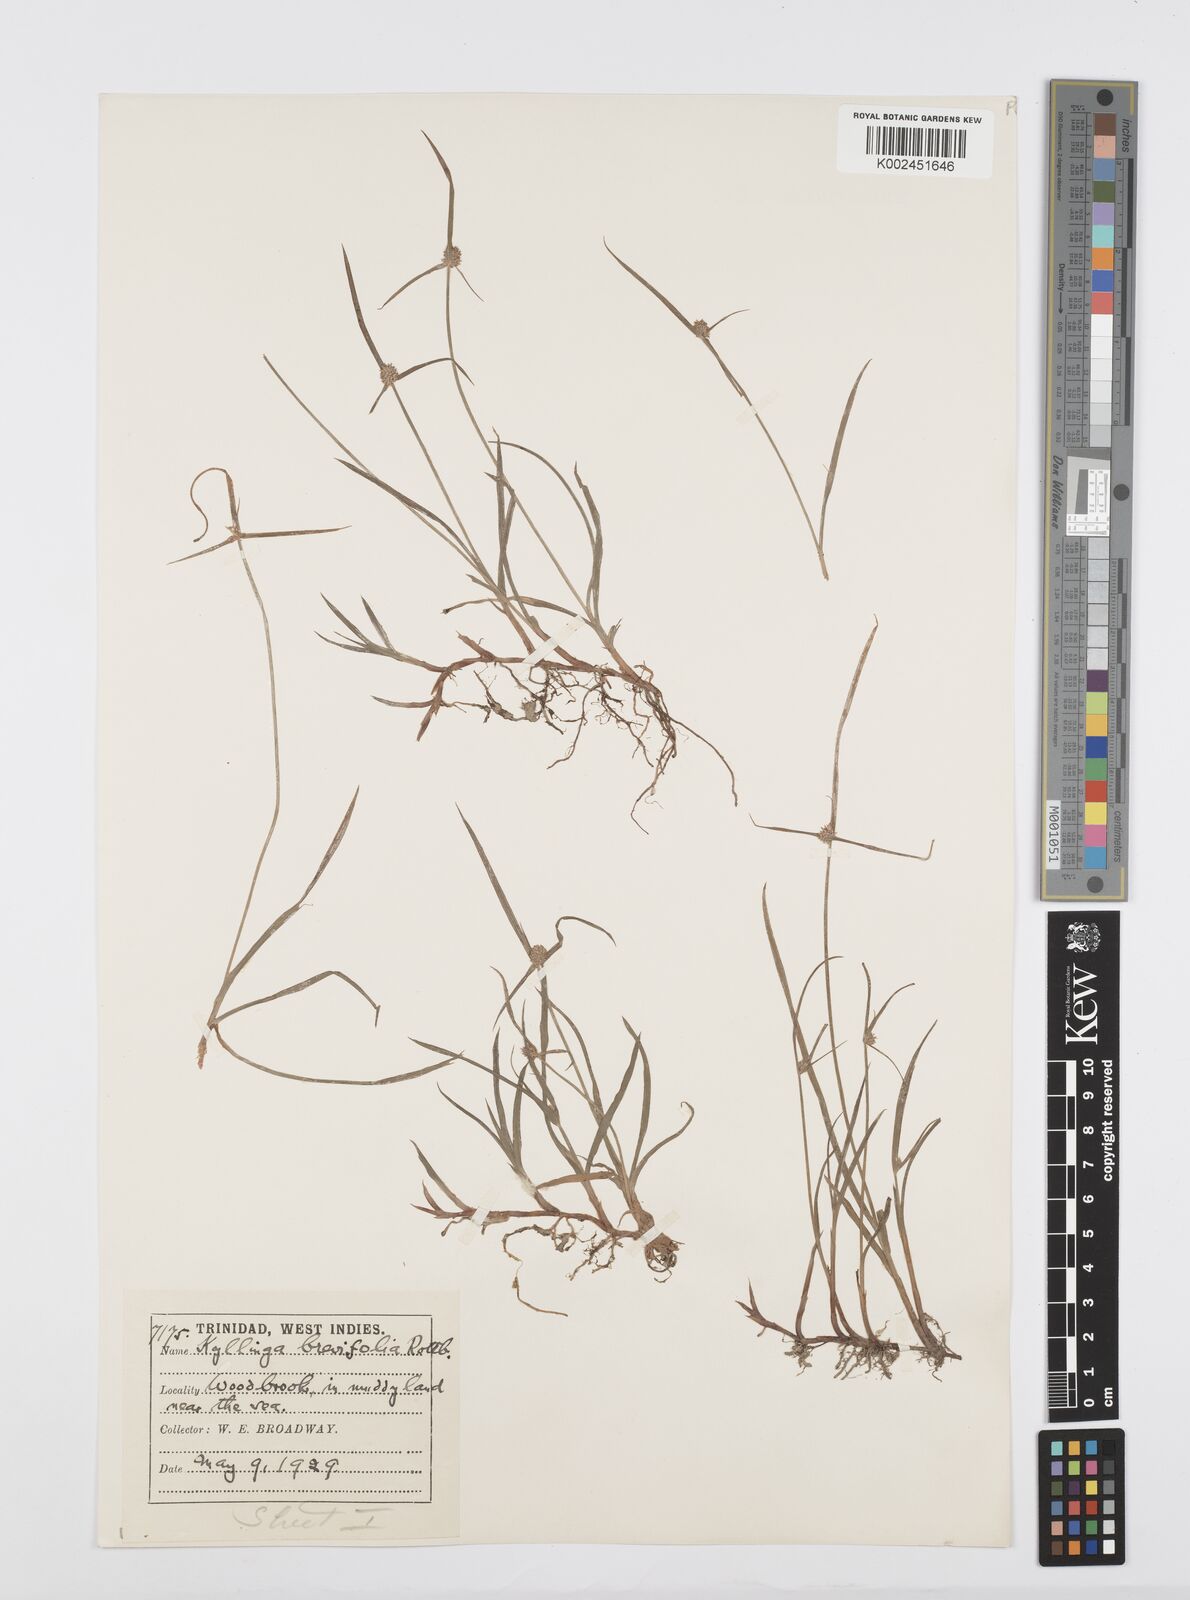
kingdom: Plantae
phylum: Tracheophyta
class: Liliopsida
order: Poales
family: Cyperaceae
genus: Cyperus
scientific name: Cyperus brevifolius
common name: Globe kyllinga
